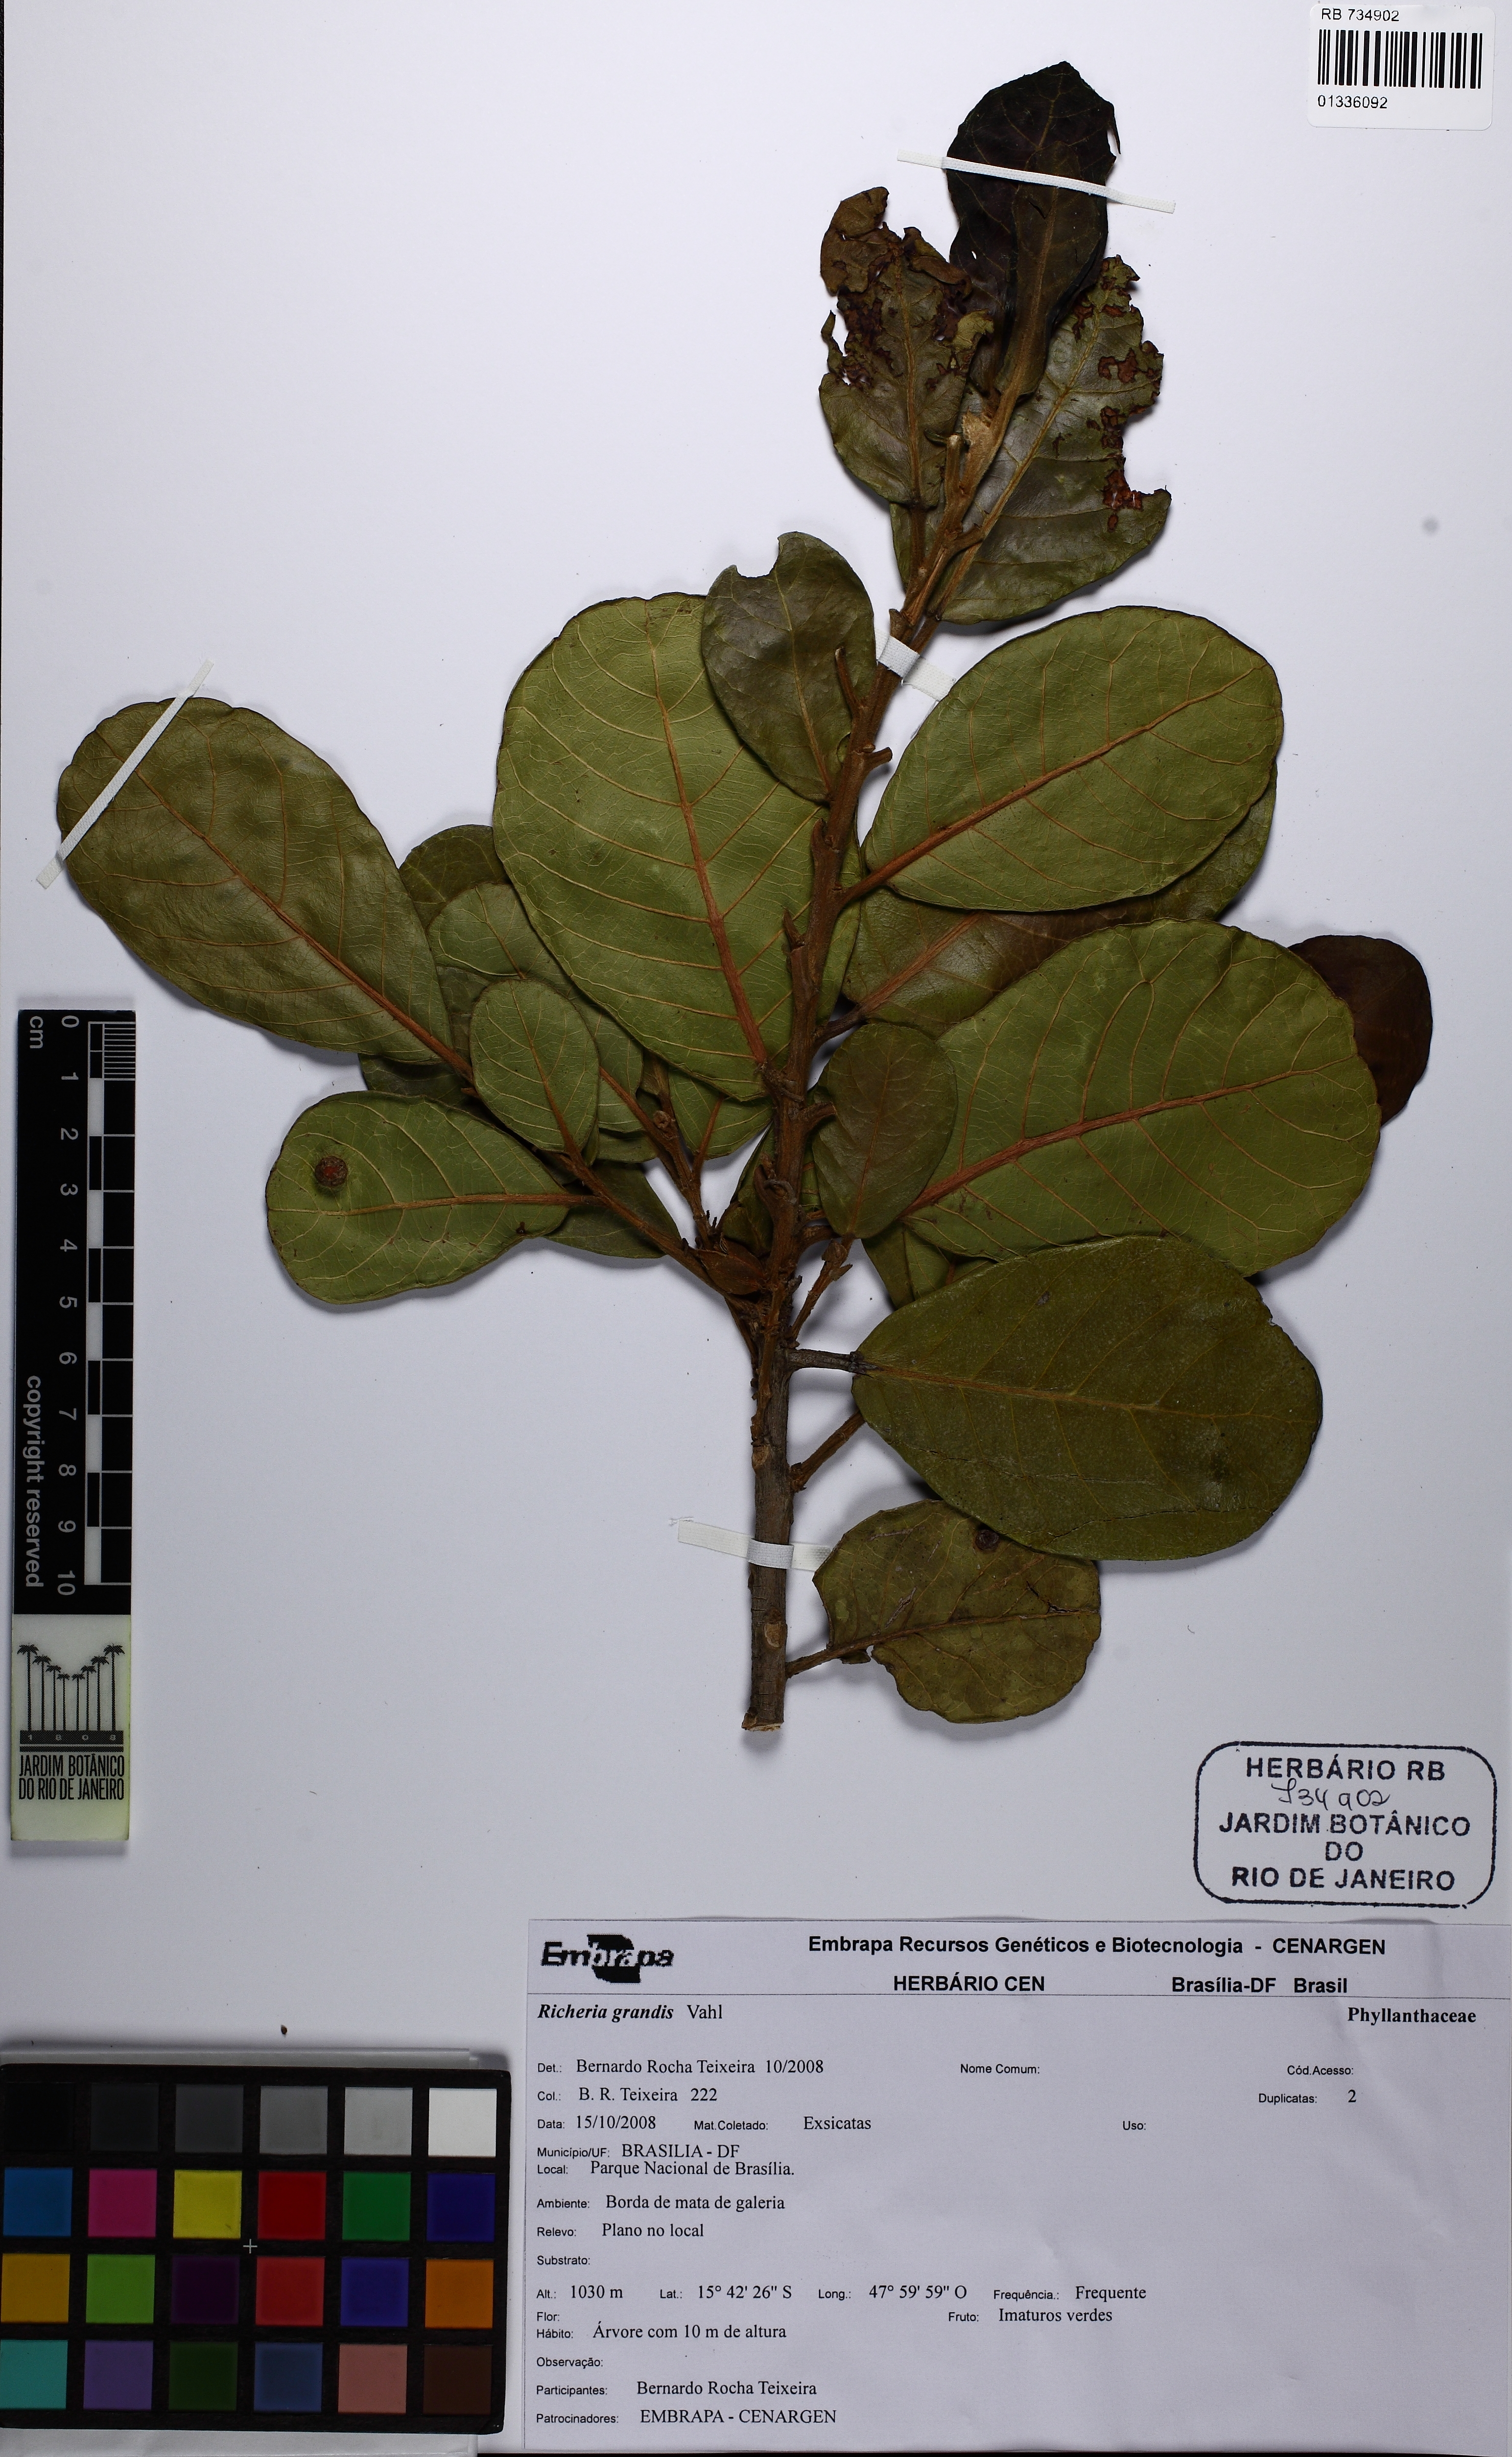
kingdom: Plantae
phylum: Tracheophyta
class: Magnoliopsida
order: Malpighiales
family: Phyllanthaceae
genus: Richeria
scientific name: Richeria grandis
